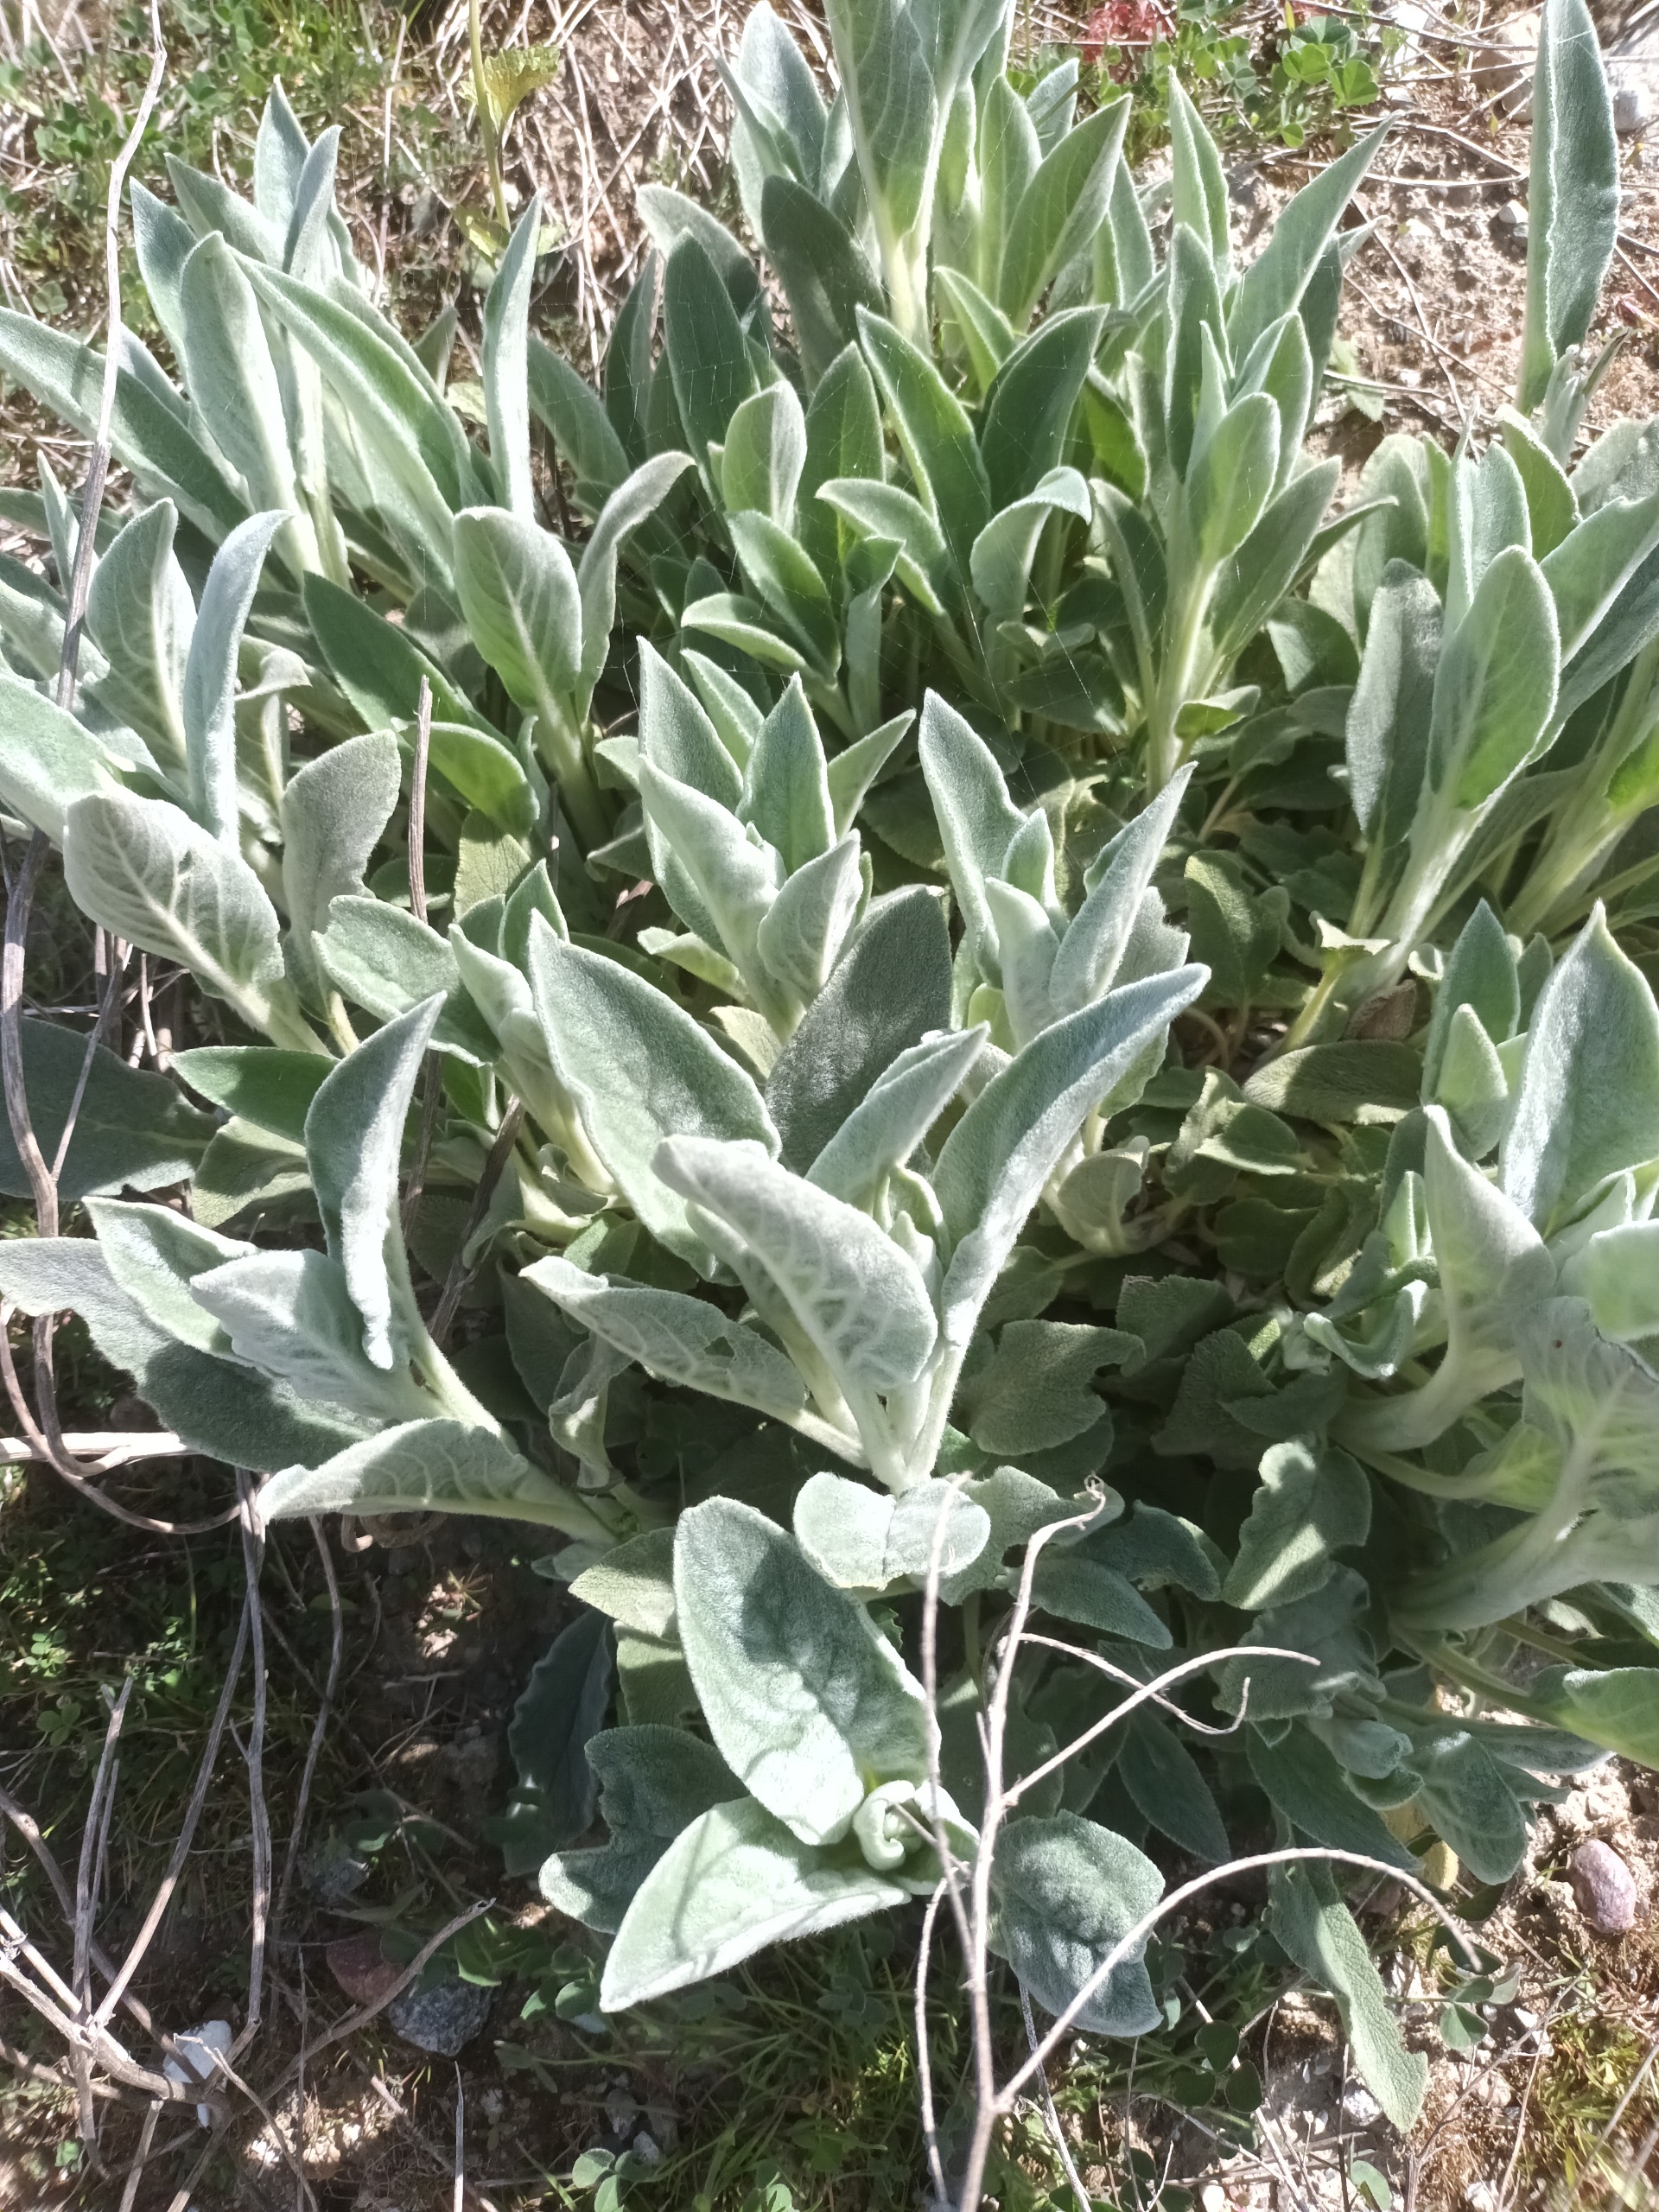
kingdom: Plantae
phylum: Tracheophyta
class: Magnoliopsida
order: Lamiales
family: Lamiaceae
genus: Stachys
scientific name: Stachys byzantina
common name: Lammeøre
